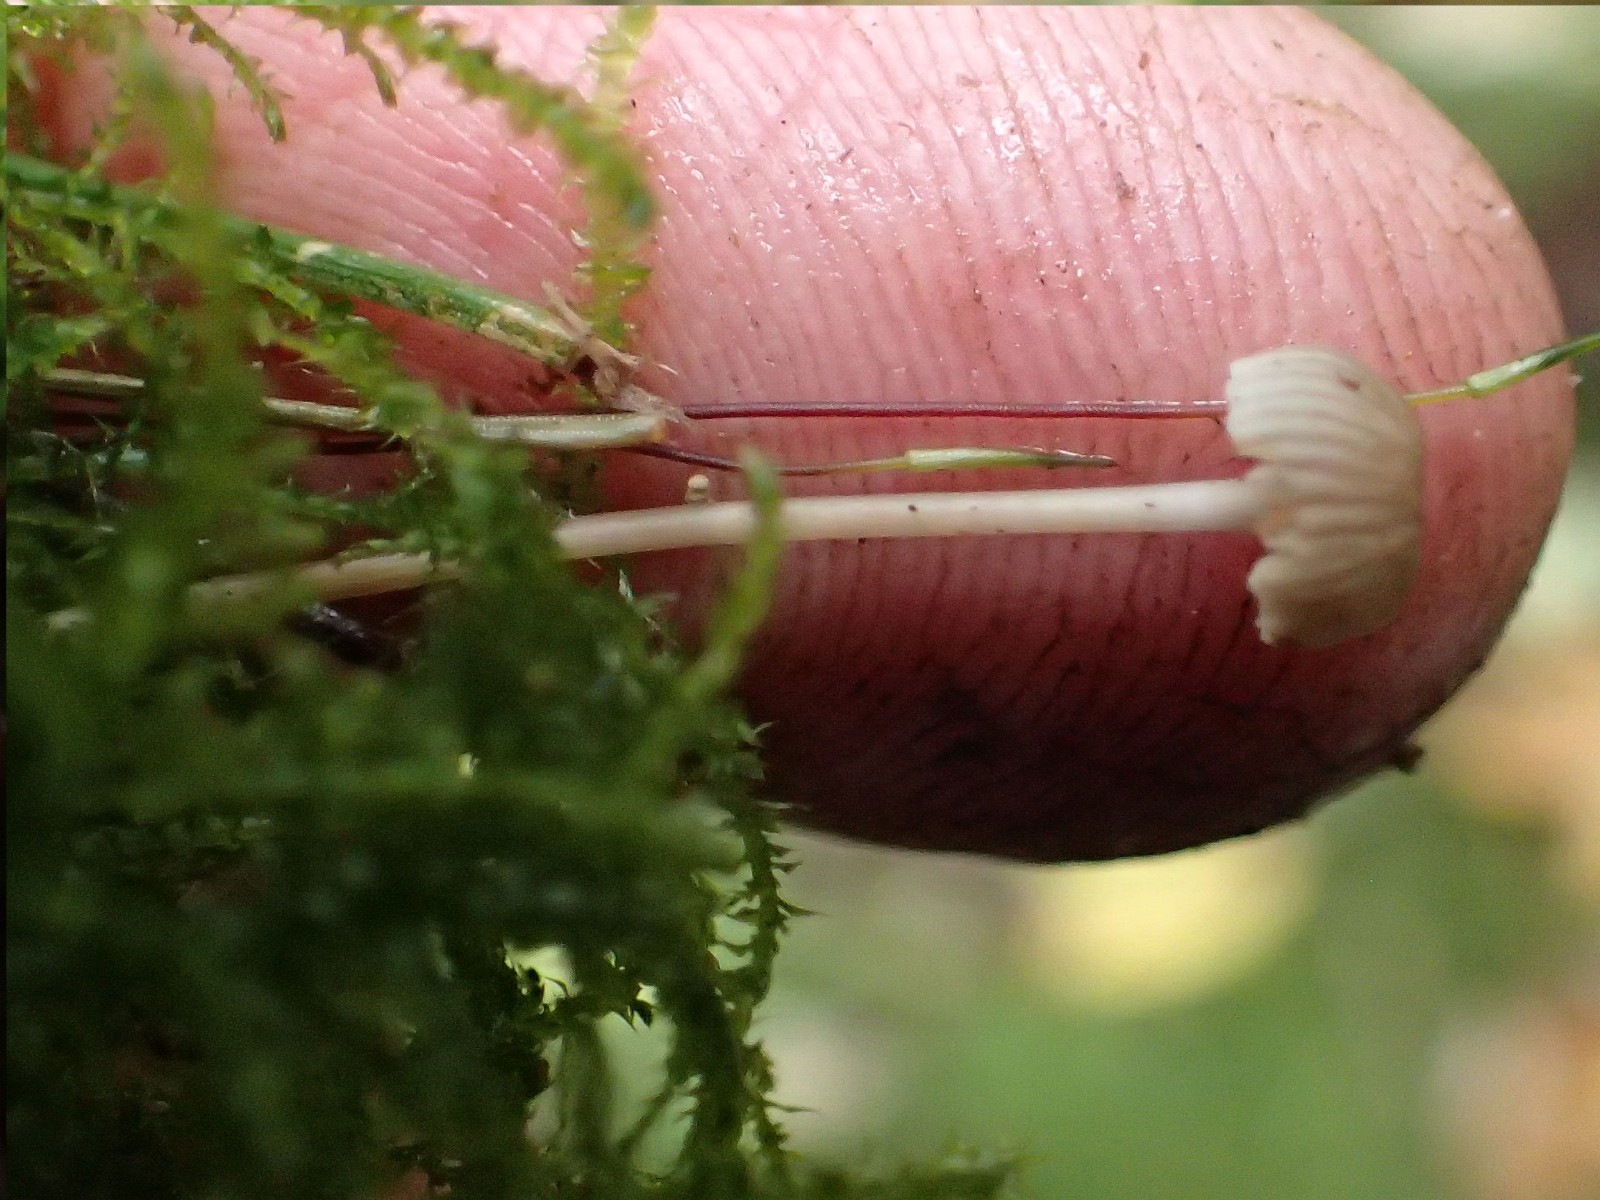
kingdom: Fungi
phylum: Basidiomycota
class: Agaricomycetes
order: Agaricales
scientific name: Agaricales
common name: champignonordenen
